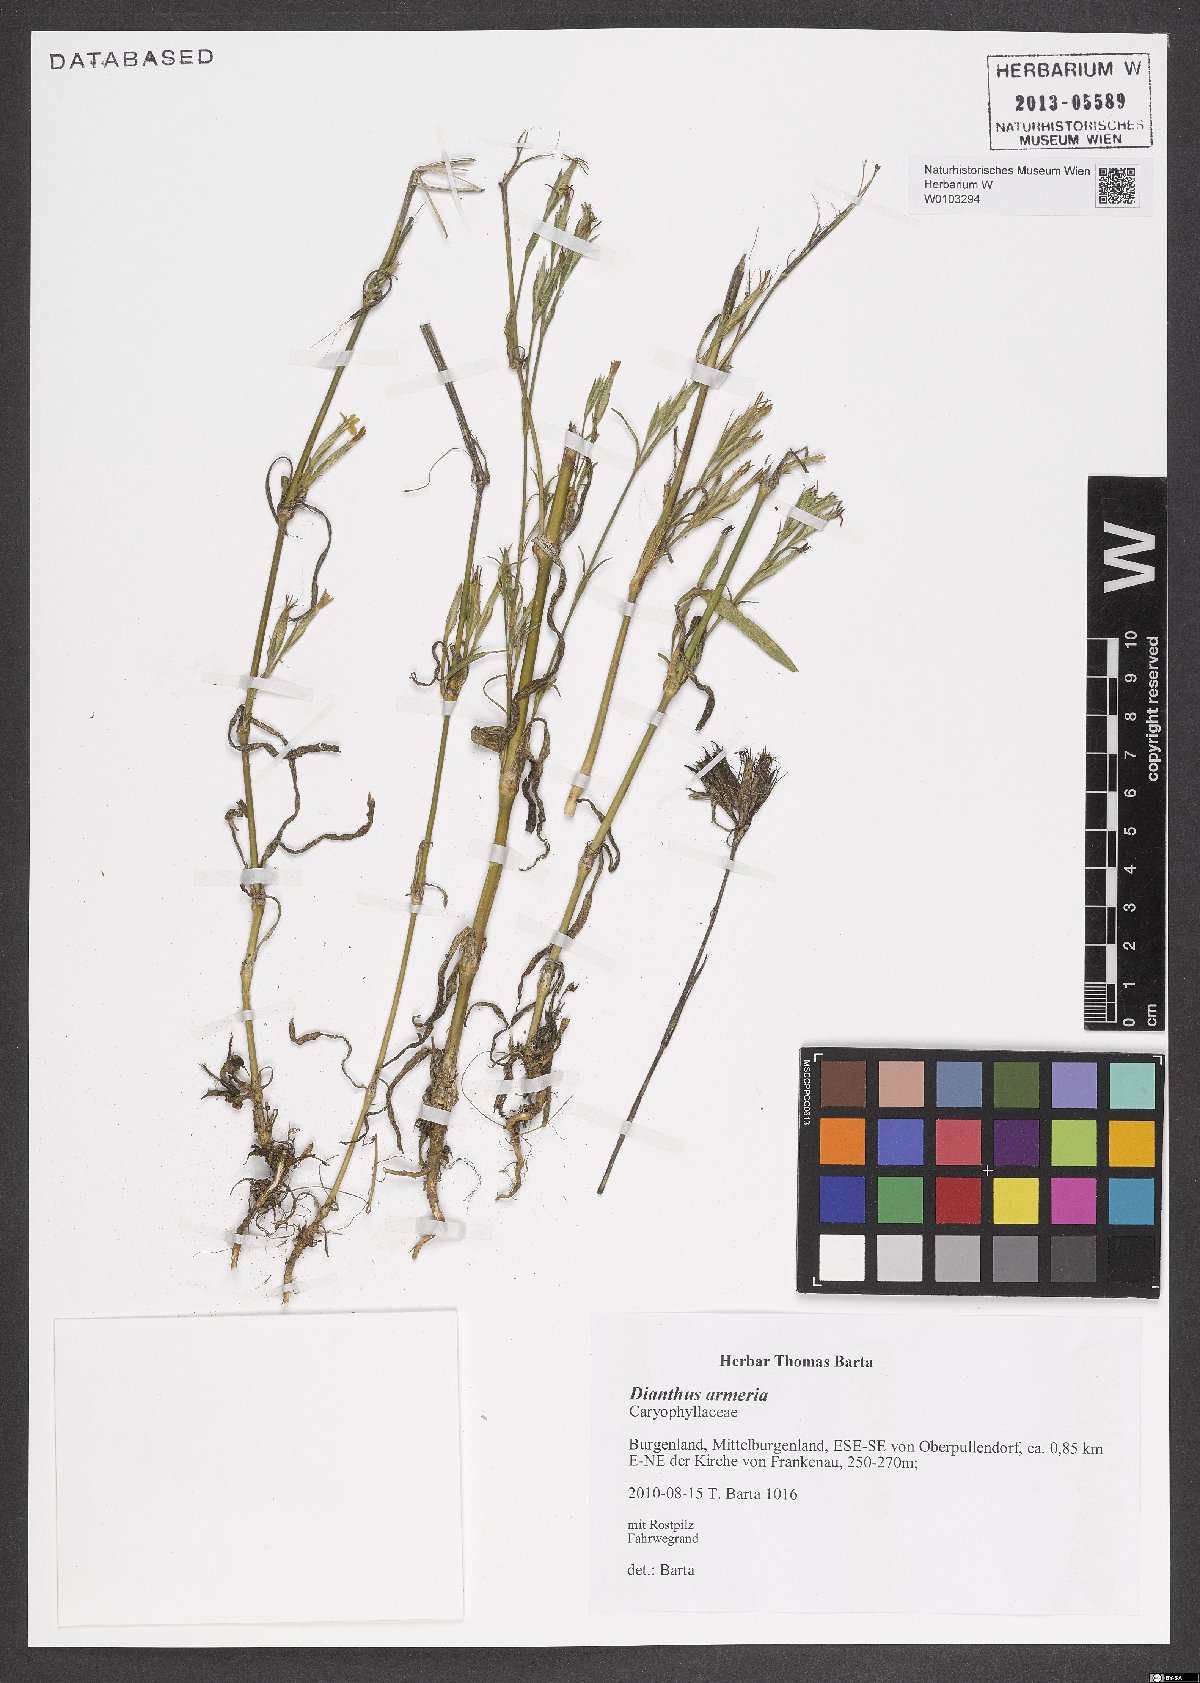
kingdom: Plantae
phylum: Tracheophyta
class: Magnoliopsida
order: Caryophyllales
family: Caryophyllaceae
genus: Dianthus
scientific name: Dianthus armeria
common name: Deptford pink
